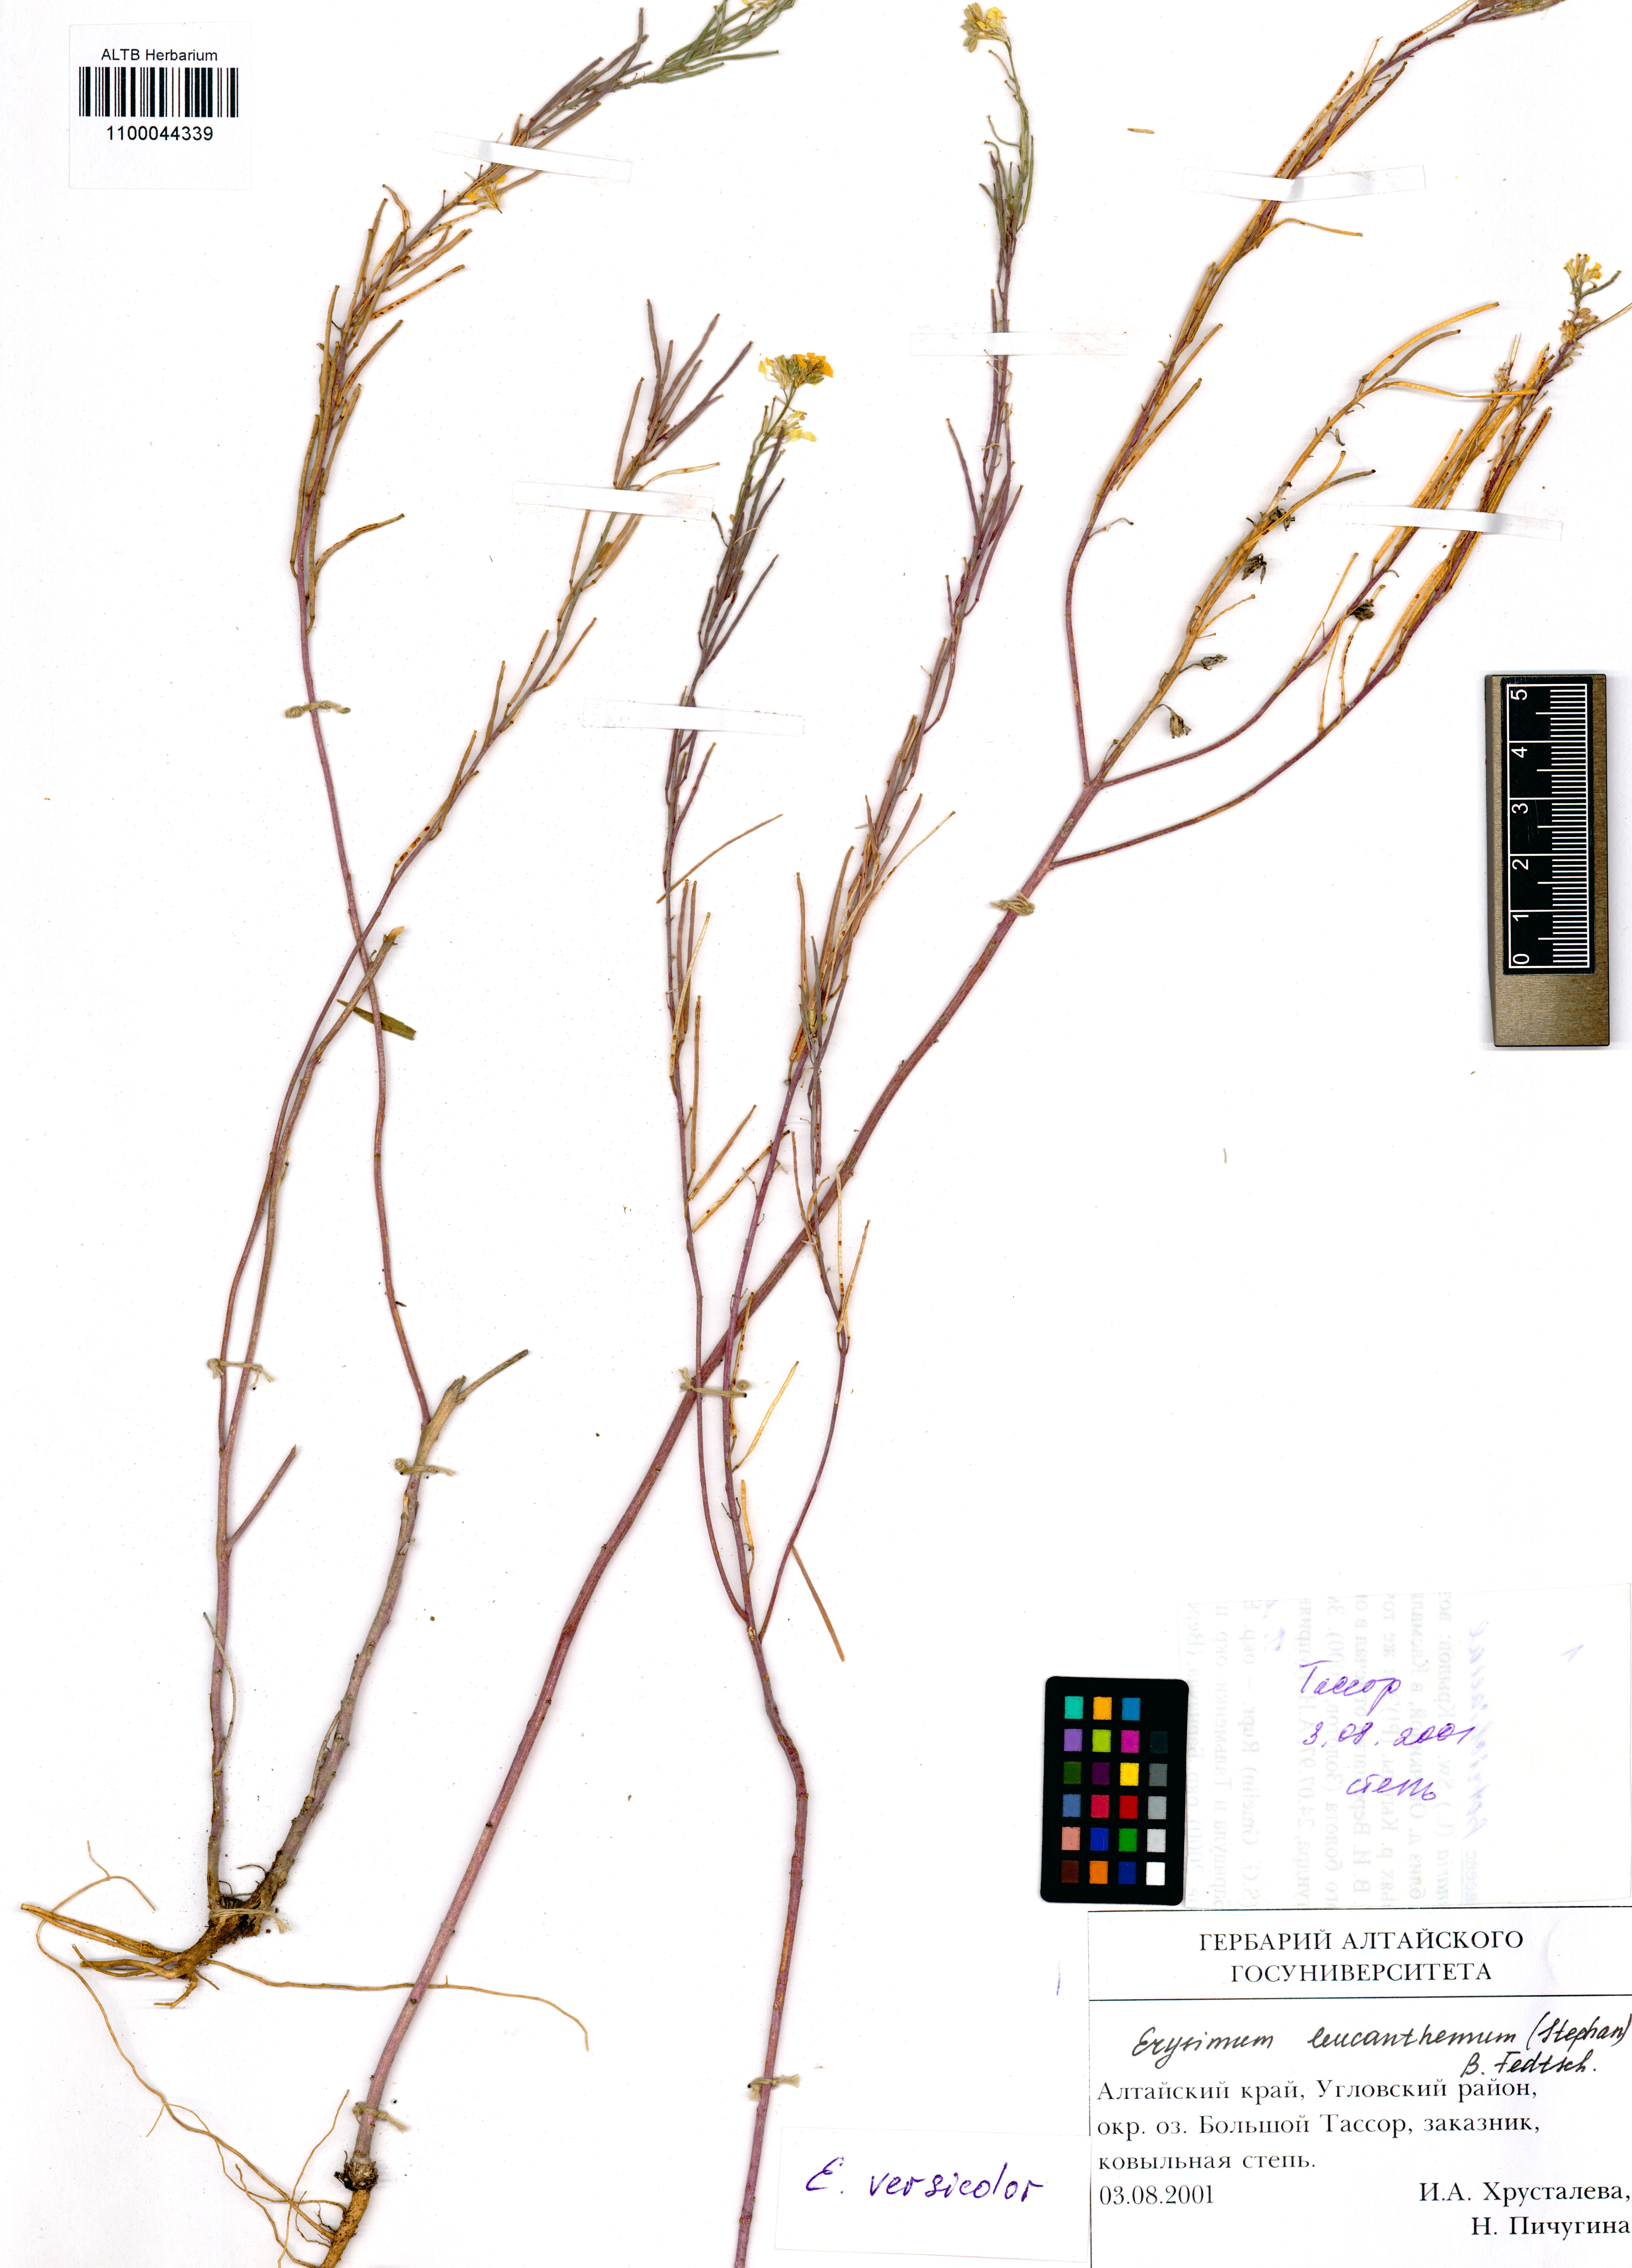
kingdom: Plantae
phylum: Tracheophyta
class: Magnoliopsida
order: Brassicales
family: Brassicaceae
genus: Erysimum
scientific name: Erysimum leucanthemum
